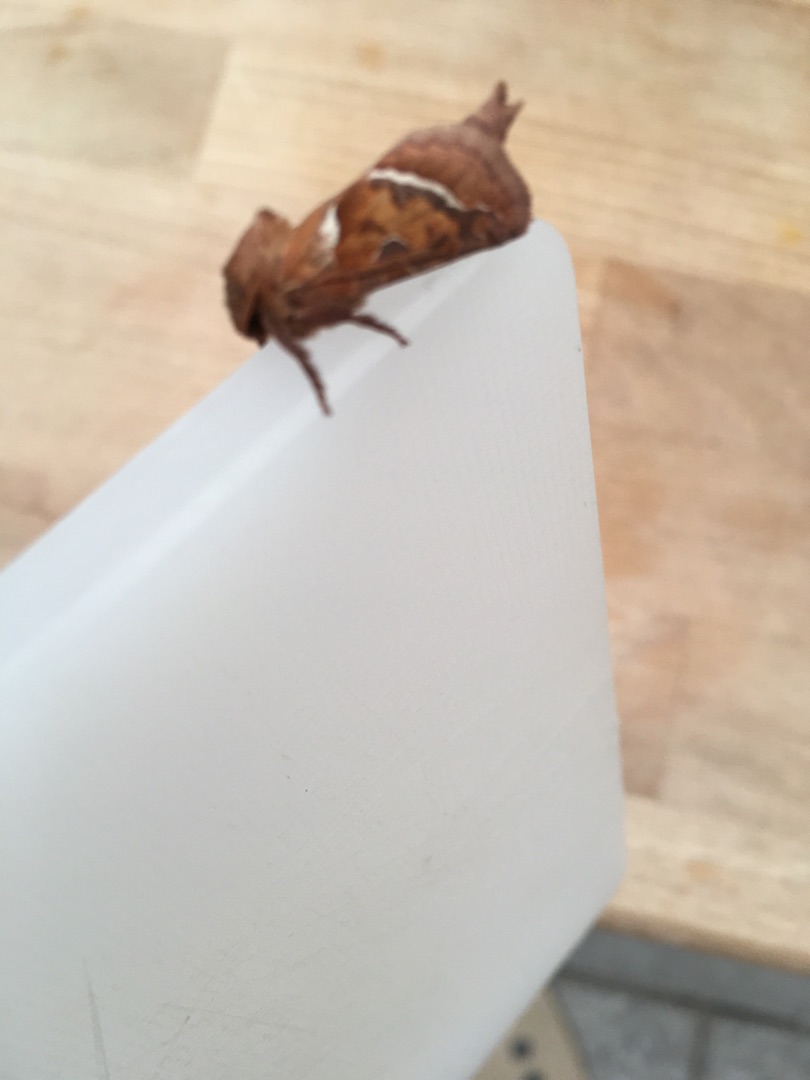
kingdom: Animalia
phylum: Arthropoda
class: Insecta
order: Lepidoptera
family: Hepialidae
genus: Triodia
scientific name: Triodia sylvina
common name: Skræpperodæder
